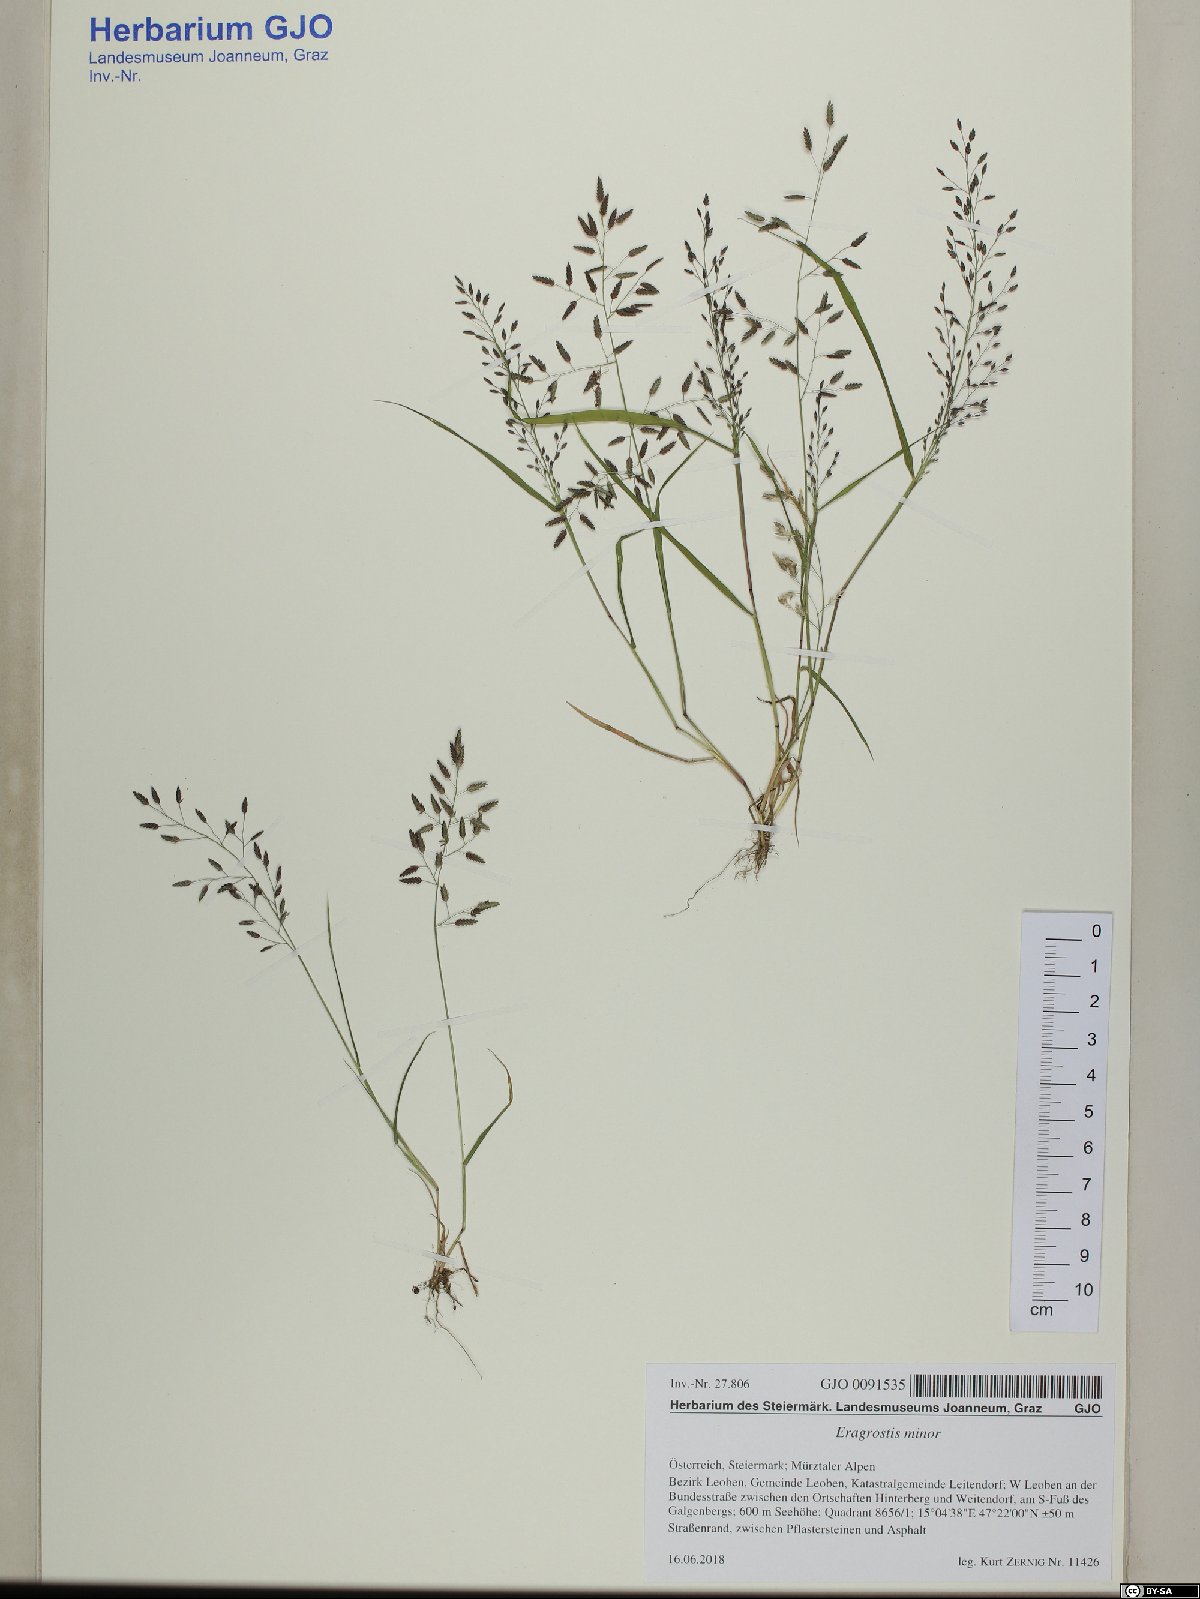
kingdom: Plantae
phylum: Tracheophyta
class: Liliopsida
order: Poales
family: Poaceae
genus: Eragrostis
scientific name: Eragrostis minor
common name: Small love-grass
